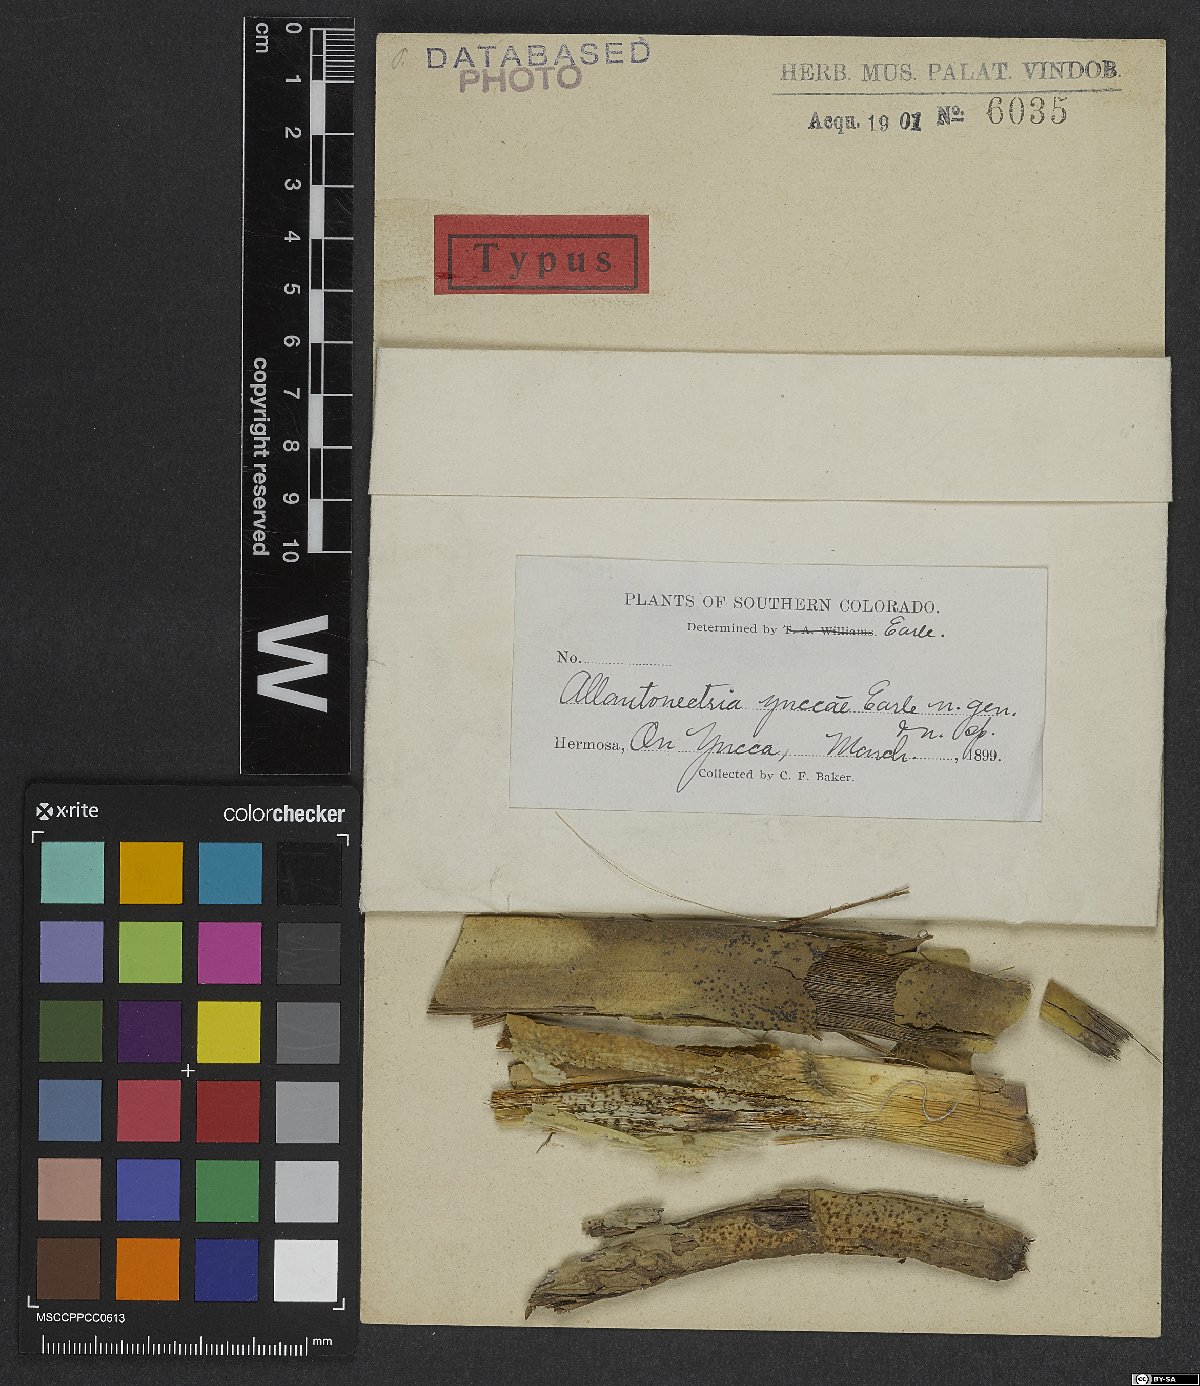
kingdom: Fungi
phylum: Ascomycota
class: Sordariomycetes
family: Thyridiaceae
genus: Thyronectria
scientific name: Thyronectria yuccae
